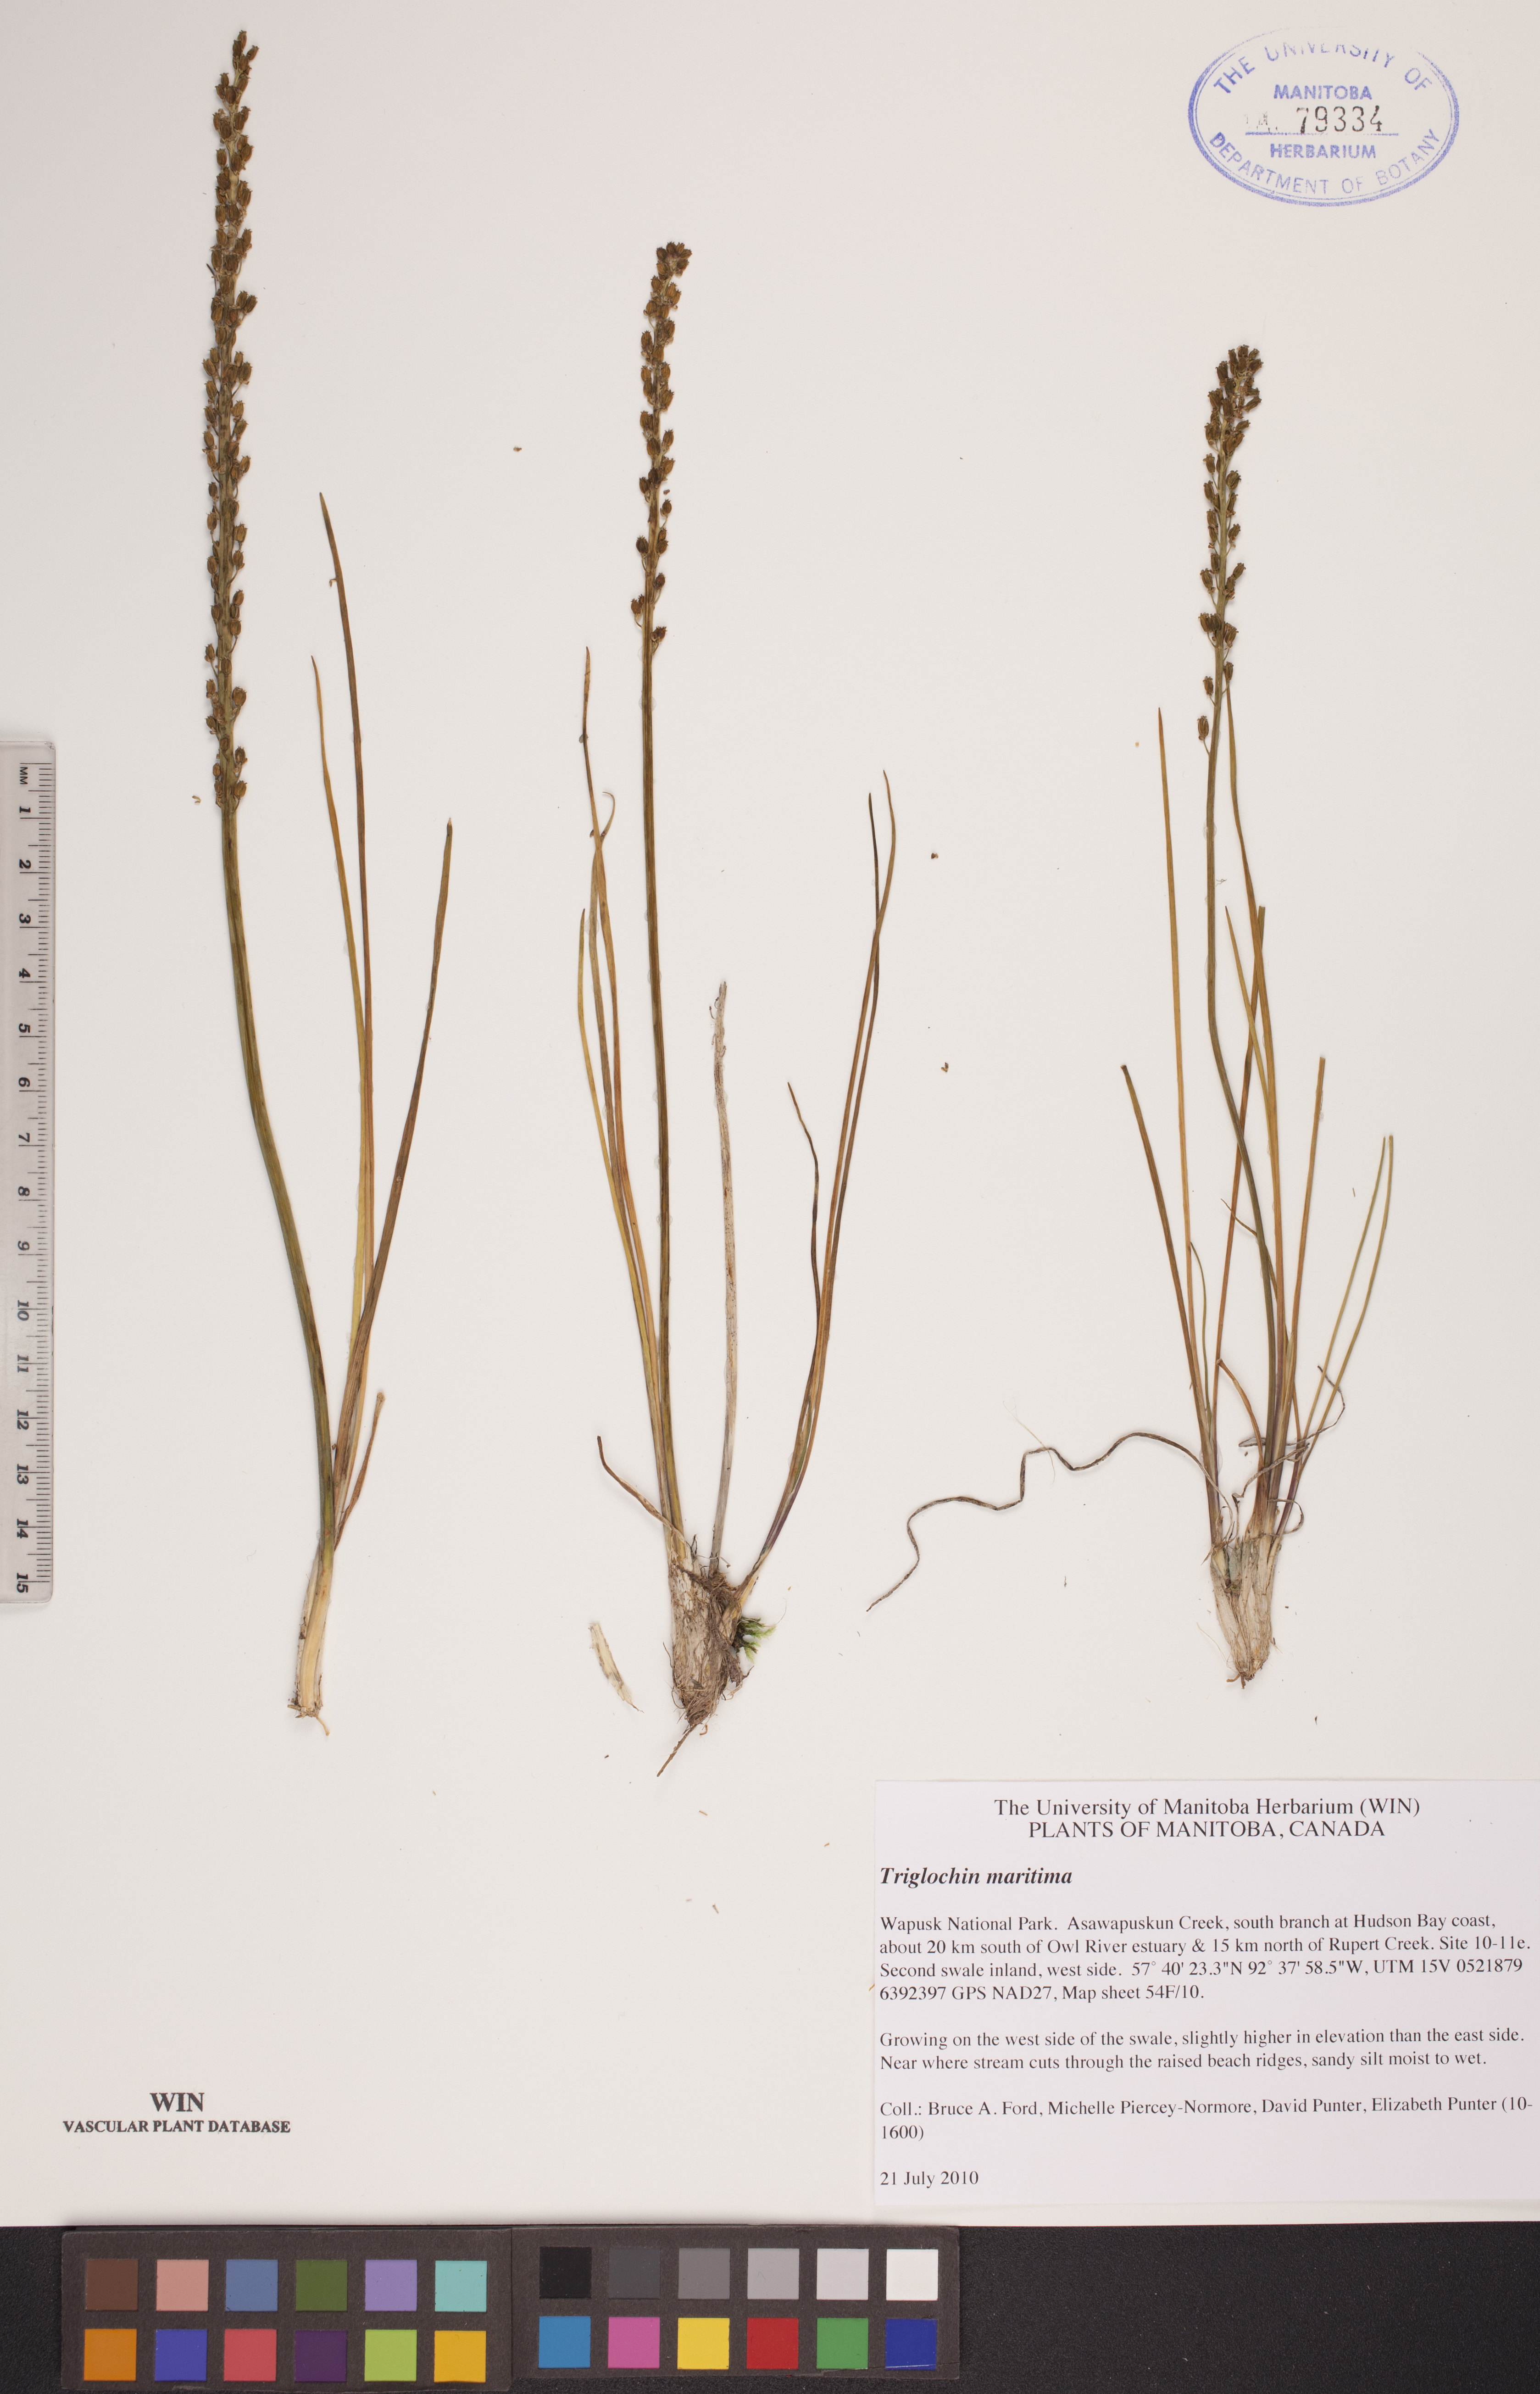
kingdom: Plantae
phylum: Tracheophyta
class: Liliopsida
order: Alismatales
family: Juncaginaceae
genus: Triglochin
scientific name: Triglochin maritima
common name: Sea arrowgrass
